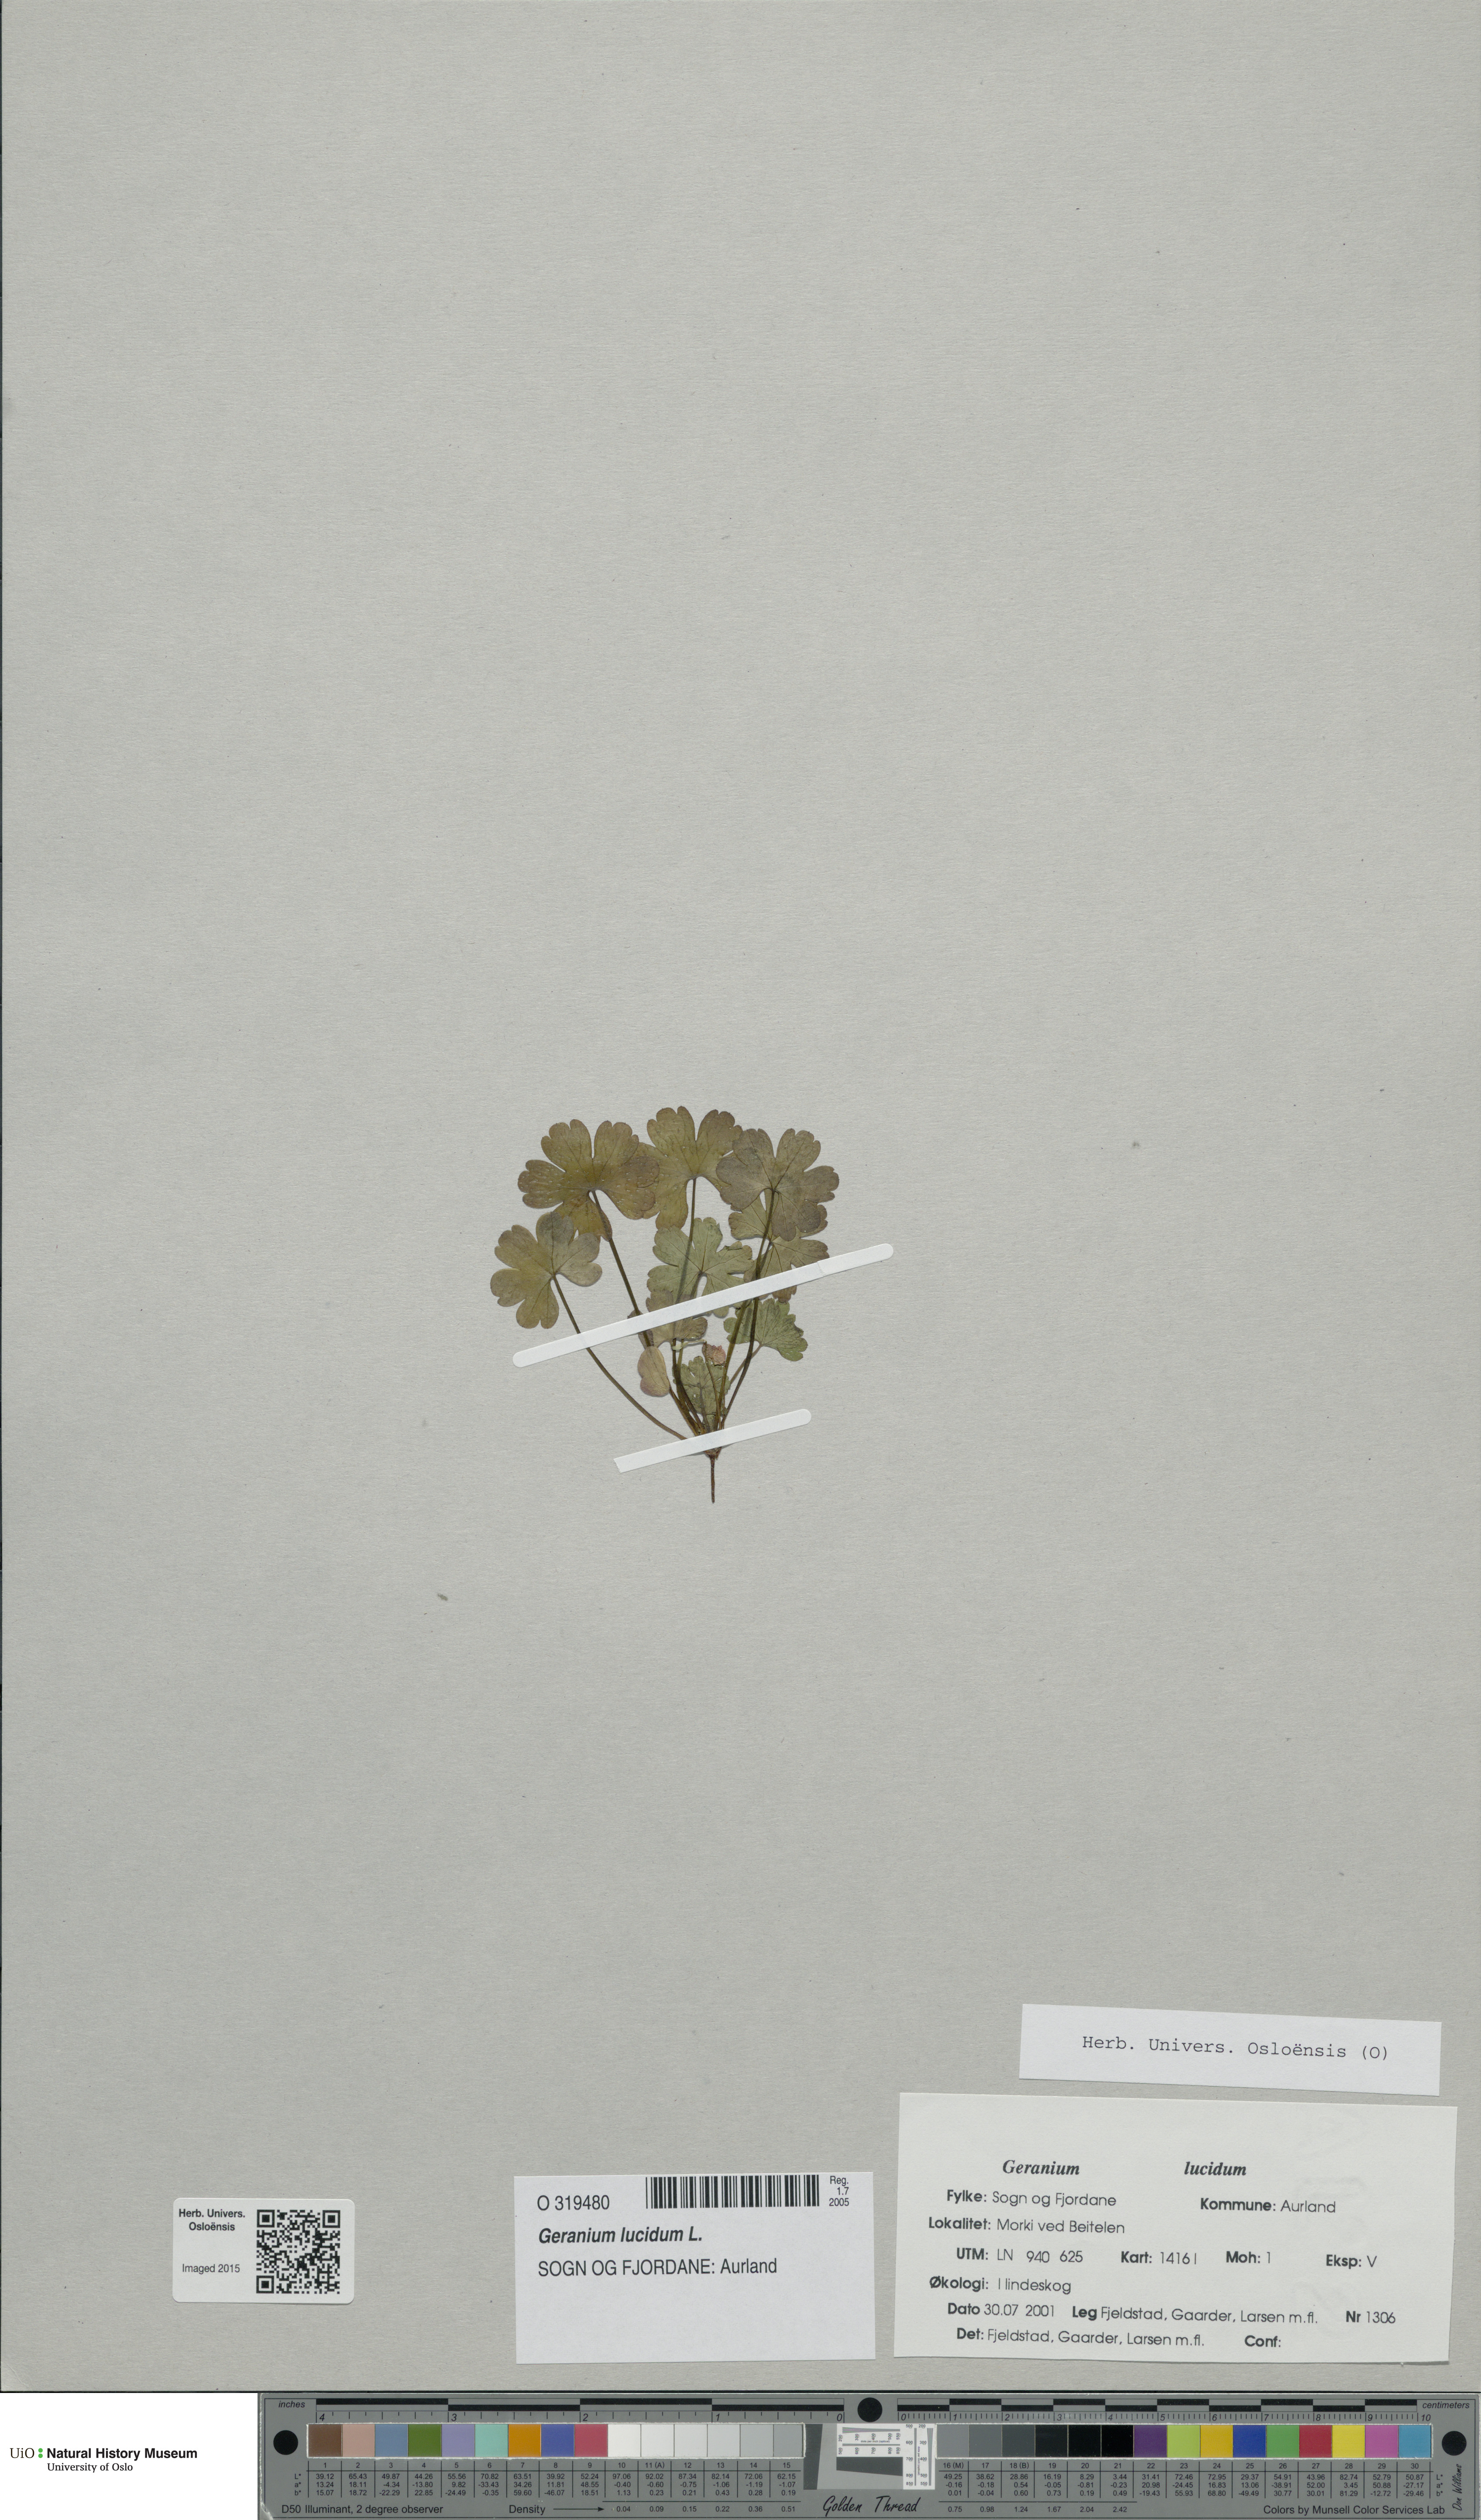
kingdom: Plantae
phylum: Tracheophyta
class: Magnoliopsida
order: Geraniales
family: Geraniaceae
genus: Geranium
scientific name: Geranium lucidum
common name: Shining crane's-bill
